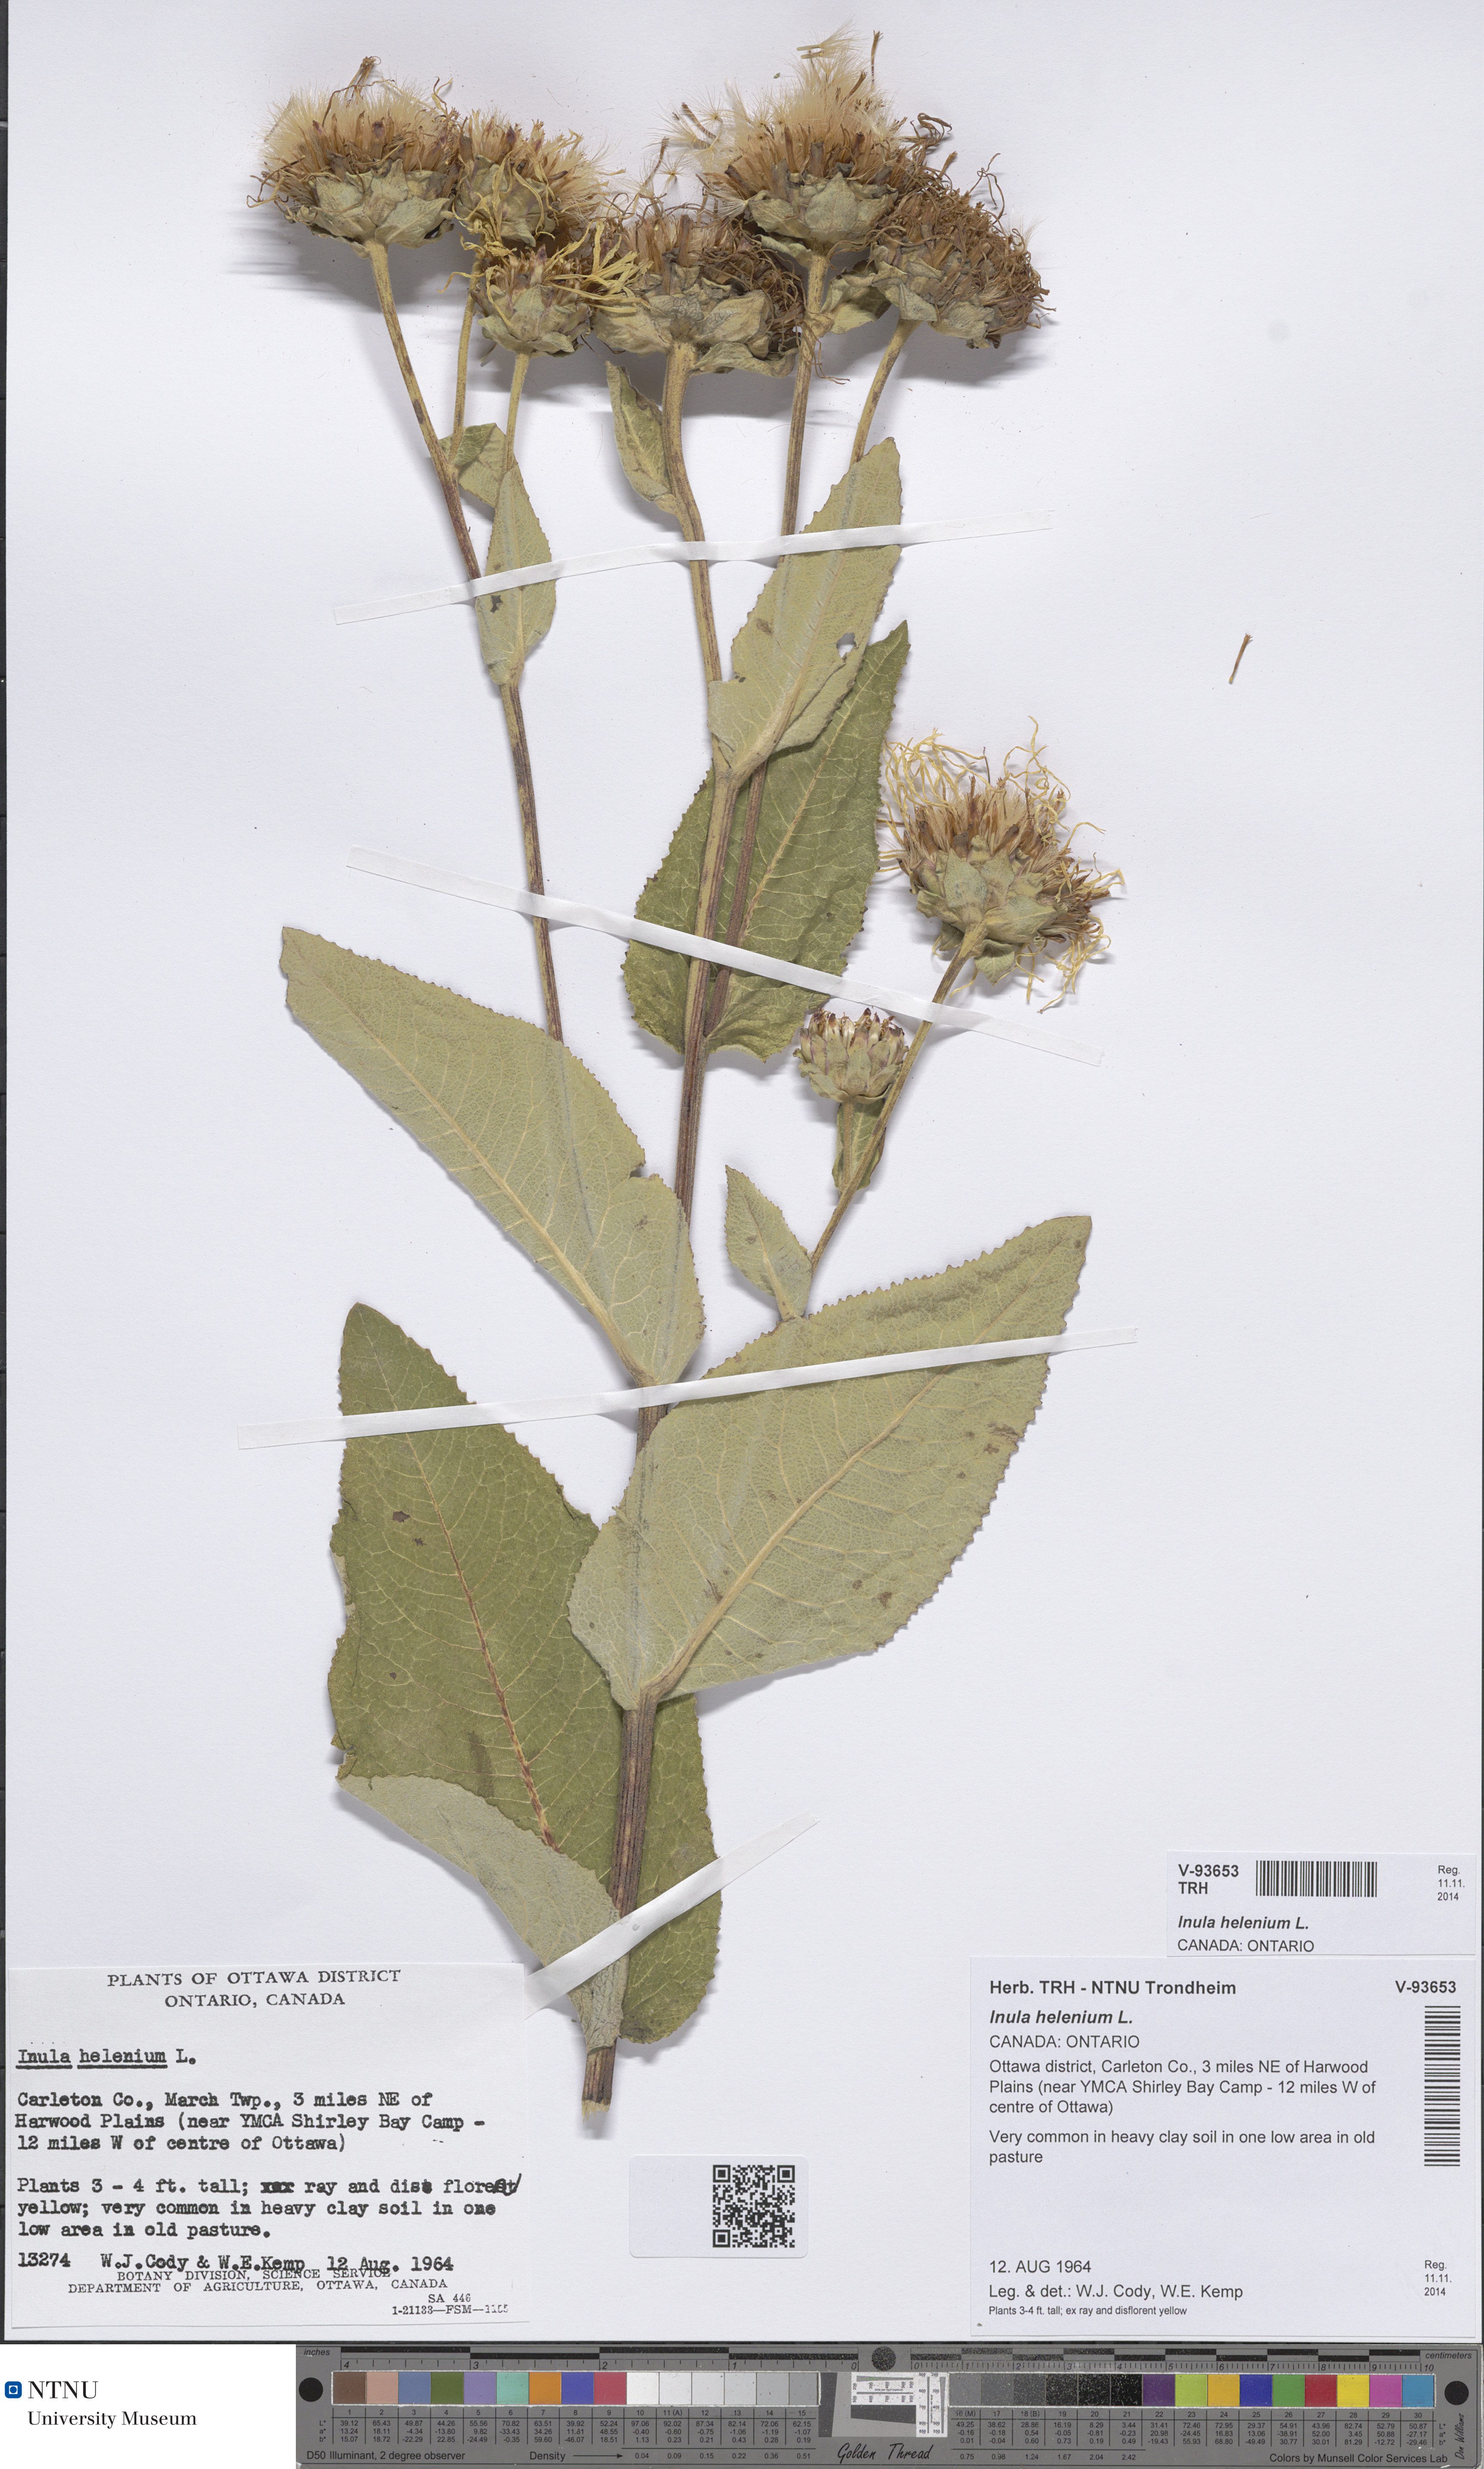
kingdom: Plantae
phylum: Tracheophyta
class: Magnoliopsida
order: Asterales
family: Asteraceae
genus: Inula
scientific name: Inula helenium
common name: Elecampane
